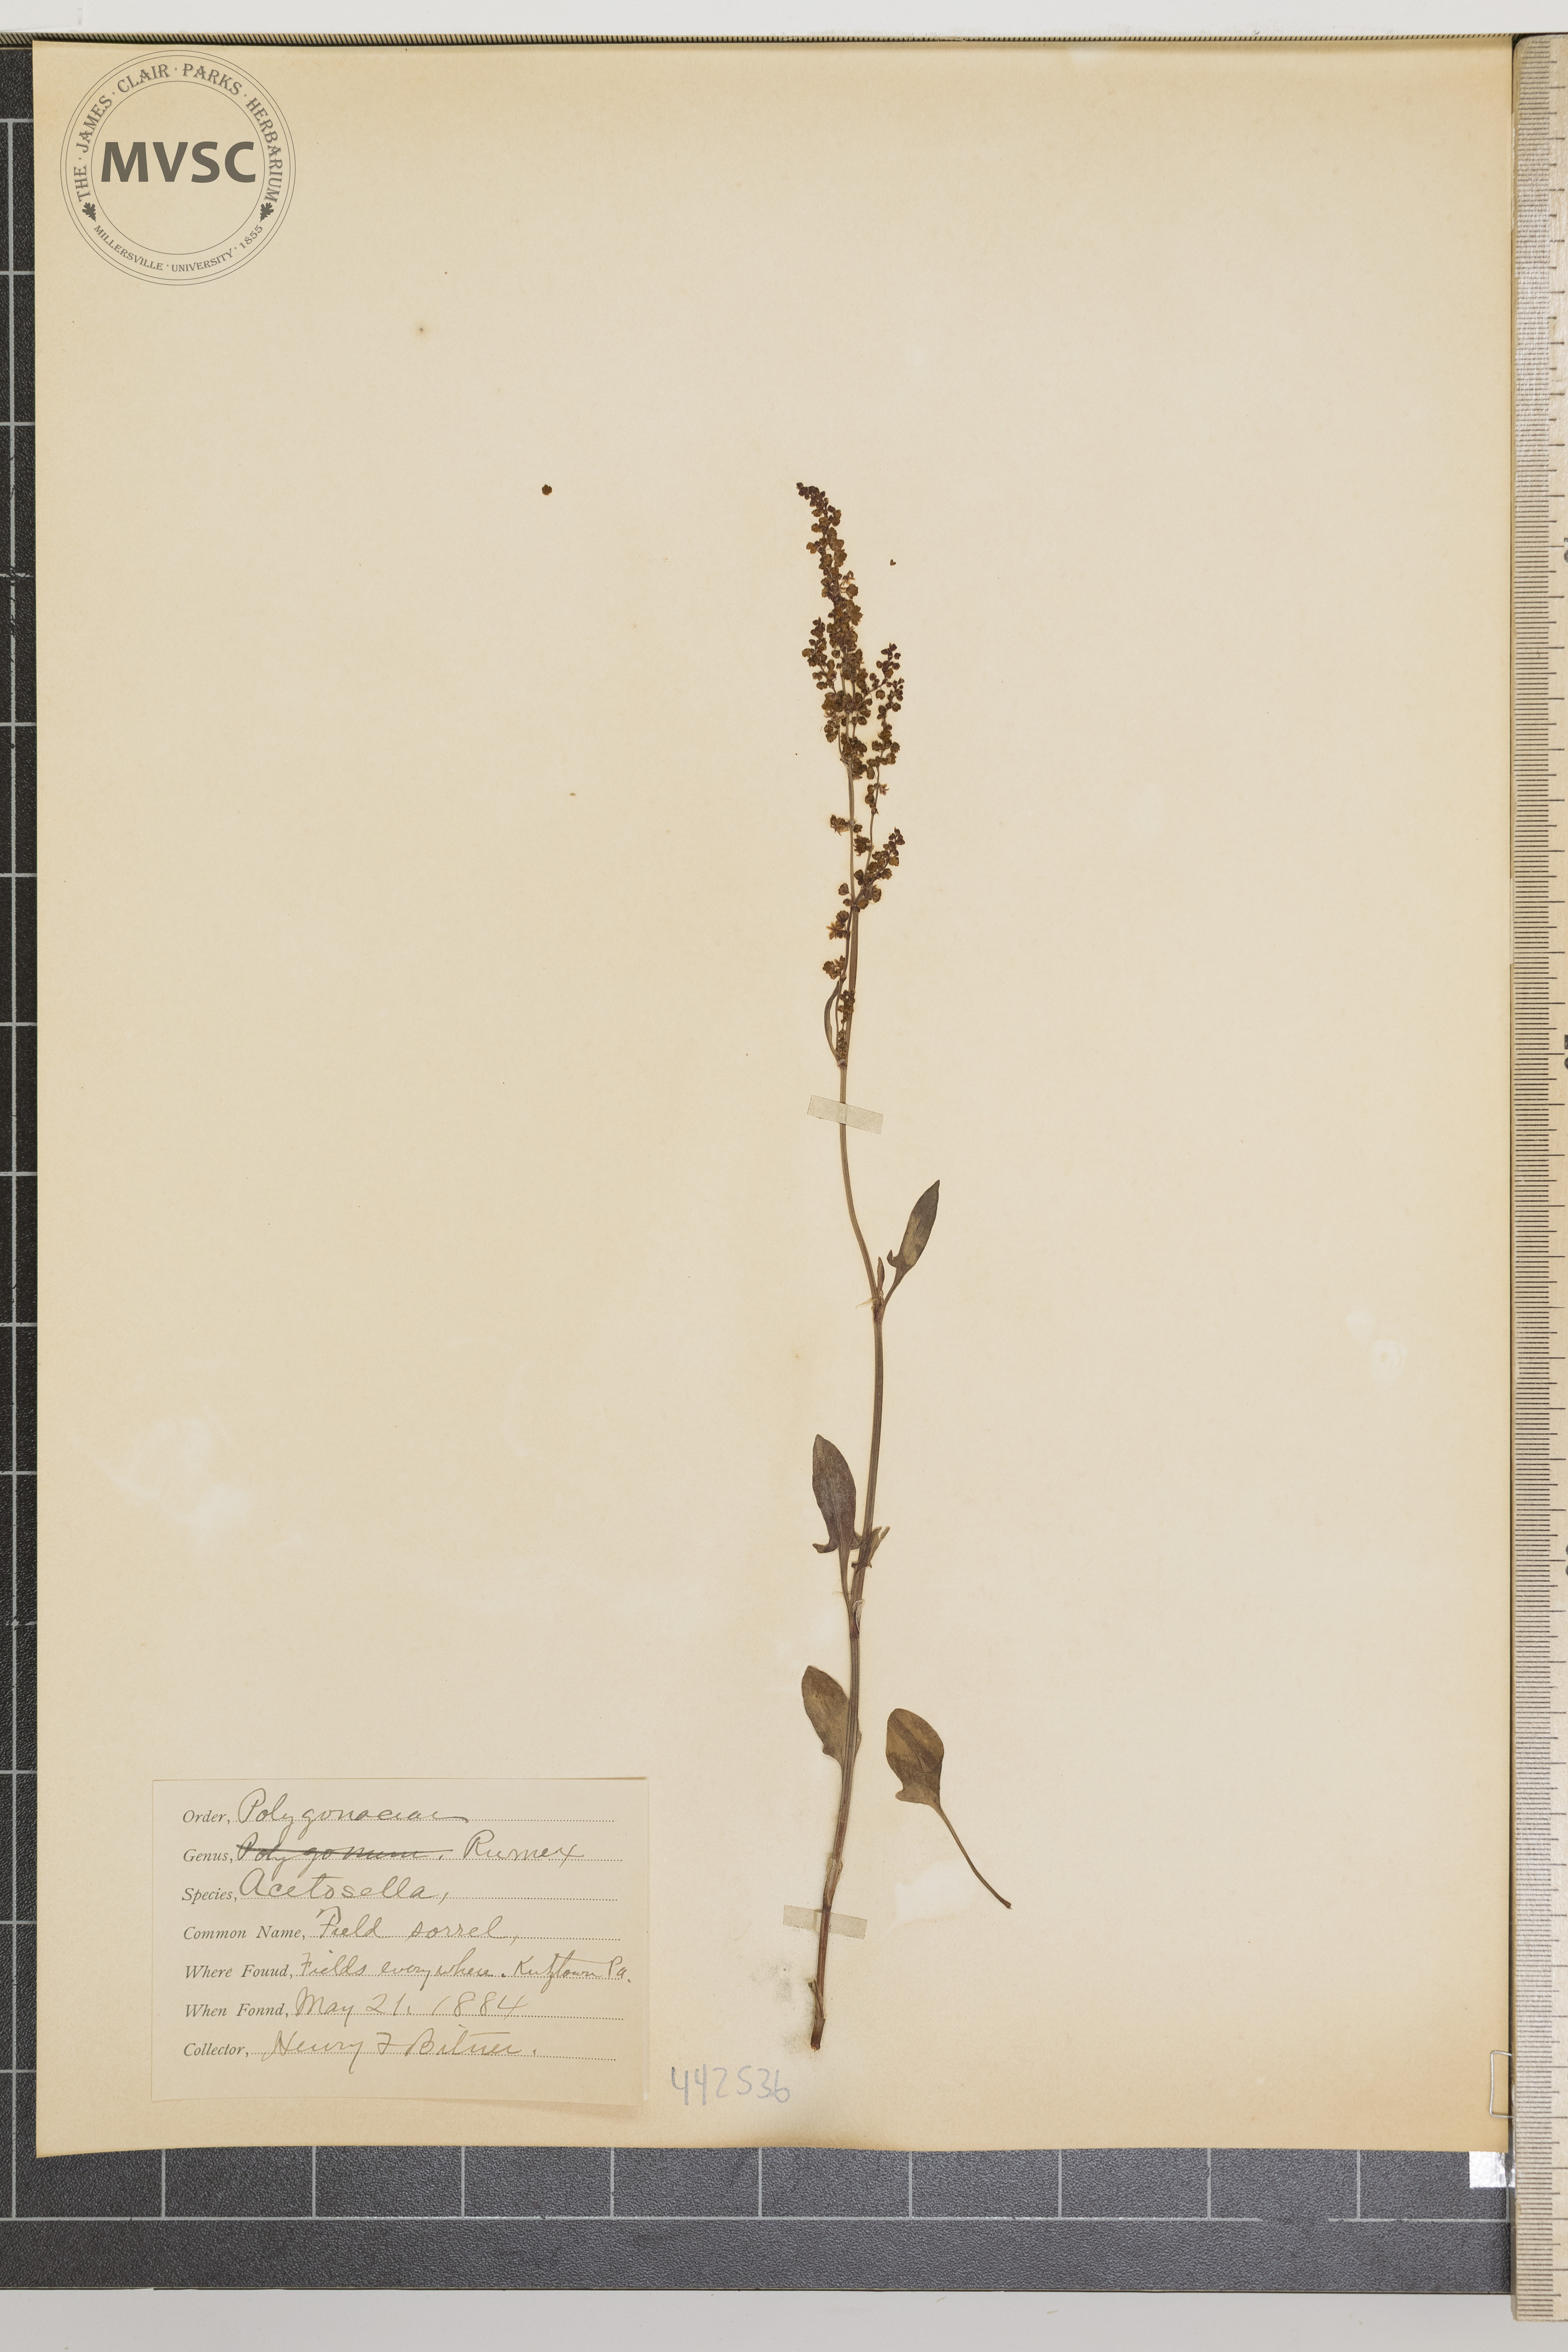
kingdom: Plantae
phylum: Tracheophyta
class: Magnoliopsida
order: Caryophyllales
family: Polygonaceae
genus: Rumex
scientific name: Rumex acetosella
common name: Field sorrel
